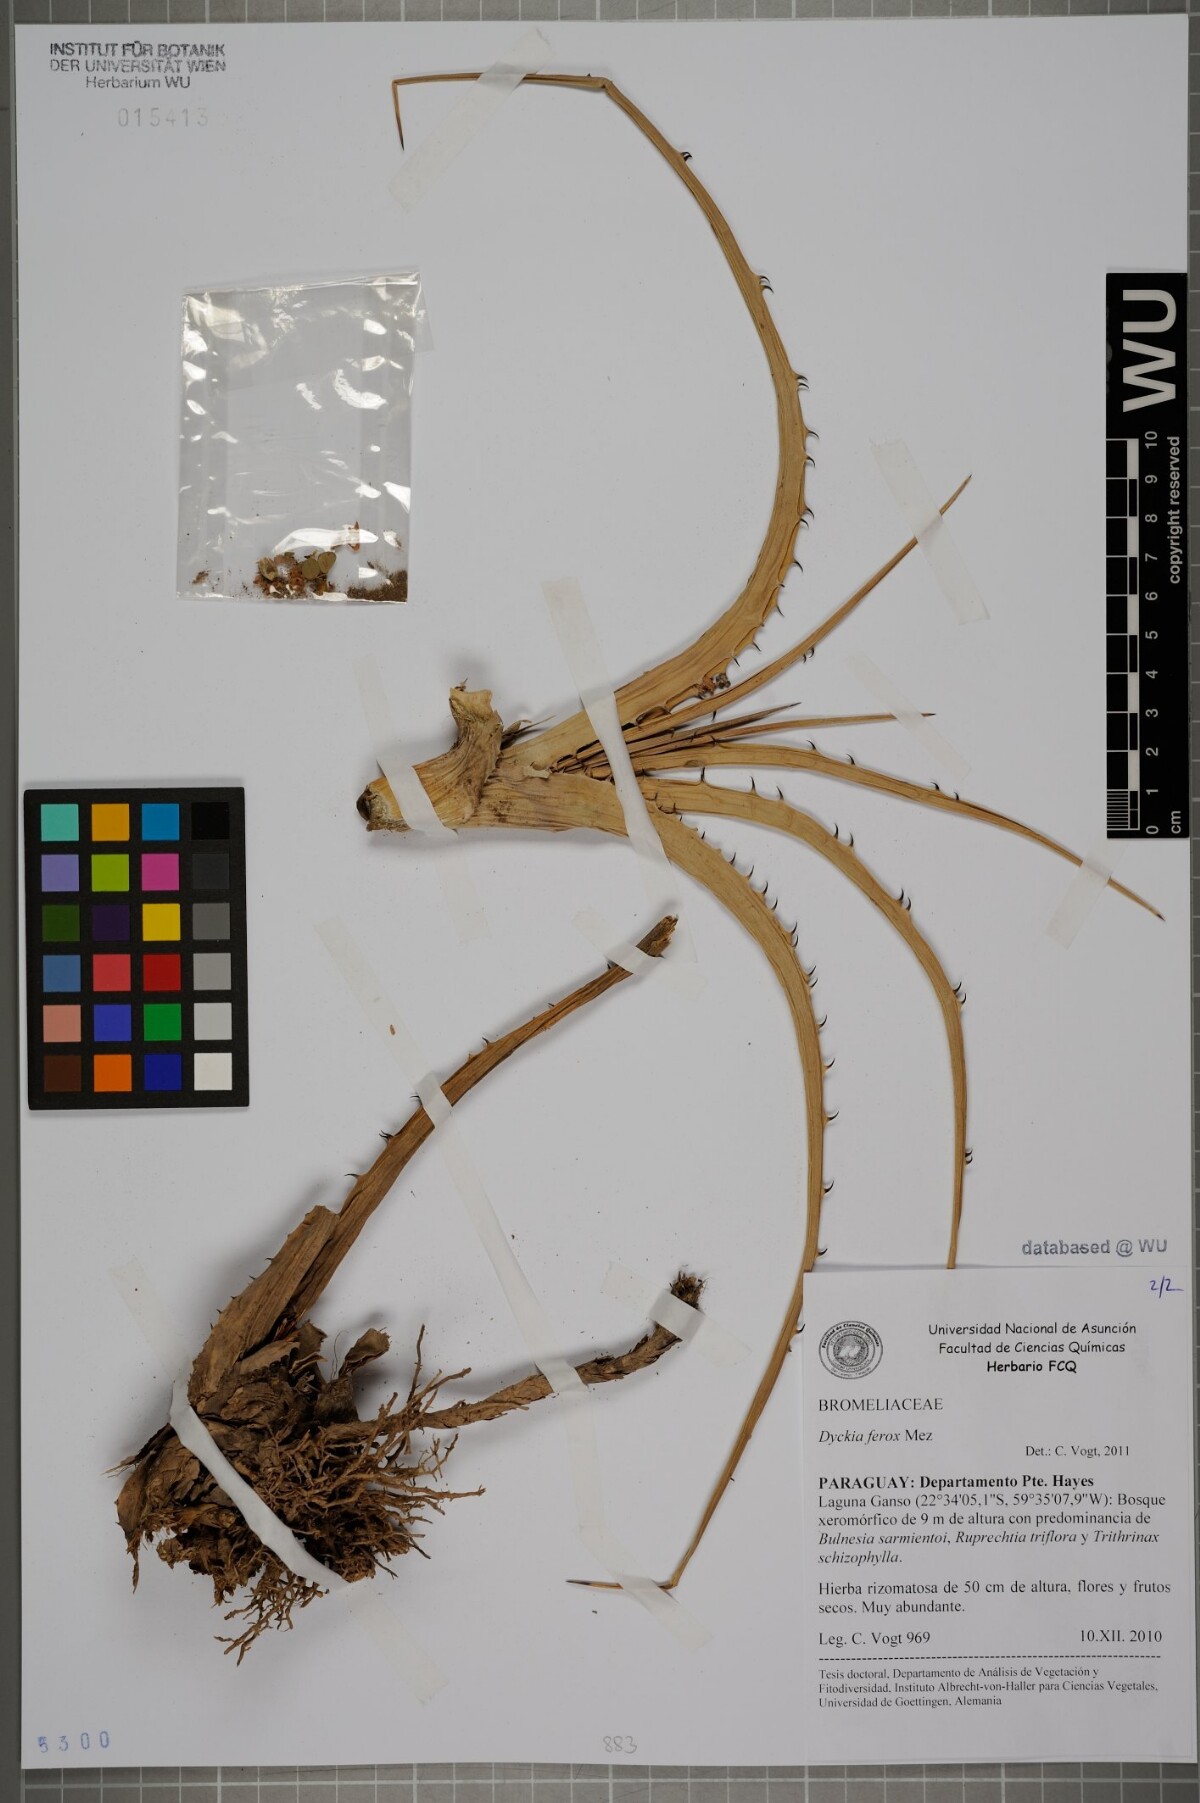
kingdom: Plantae
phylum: Tracheophyta
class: Liliopsida
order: Poales
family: Bromeliaceae
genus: Dyckia
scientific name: Dyckia ferox
